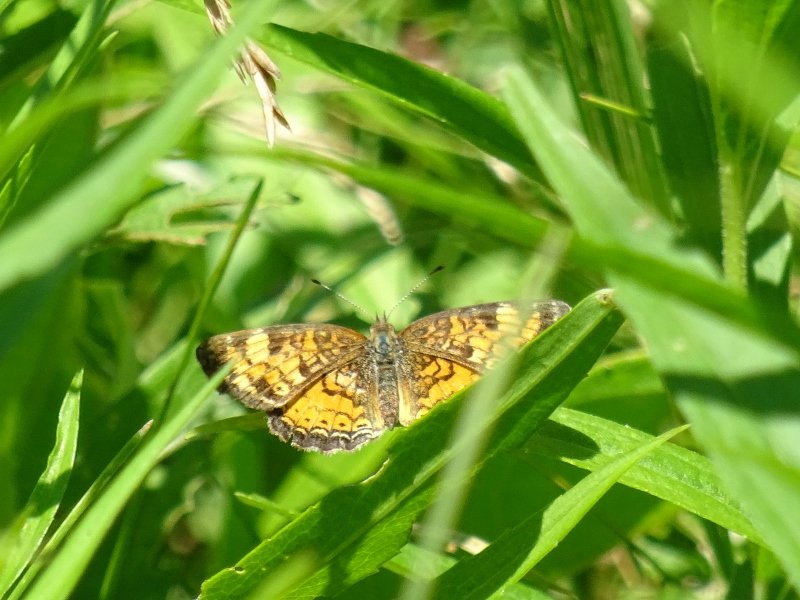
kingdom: Animalia
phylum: Arthropoda
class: Insecta
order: Lepidoptera
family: Nymphalidae
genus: Phyciodes
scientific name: Phyciodes tharos
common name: Pearl Crescent
